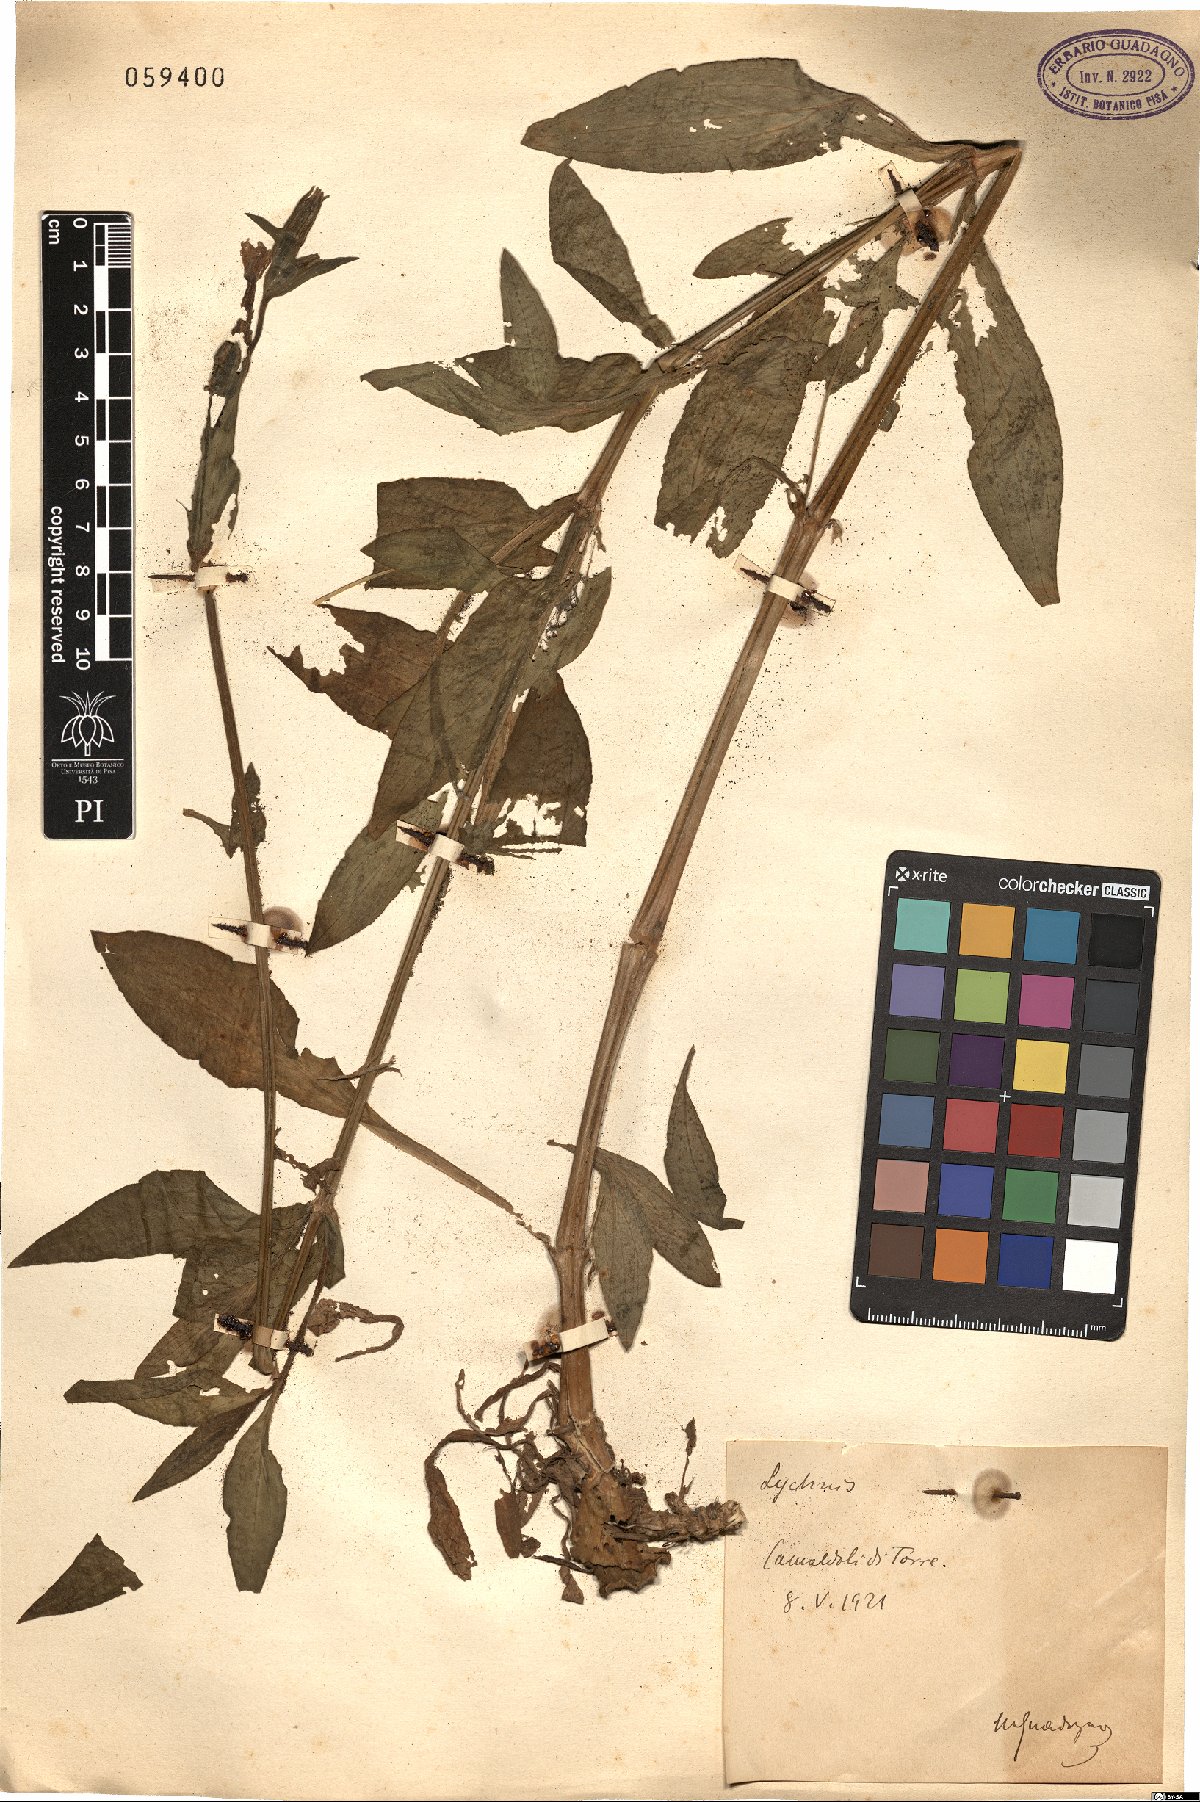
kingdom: Plantae
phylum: Tracheophyta
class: Magnoliopsida
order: Caryophyllales
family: Caryophyllaceae
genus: Silene
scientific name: Silene
